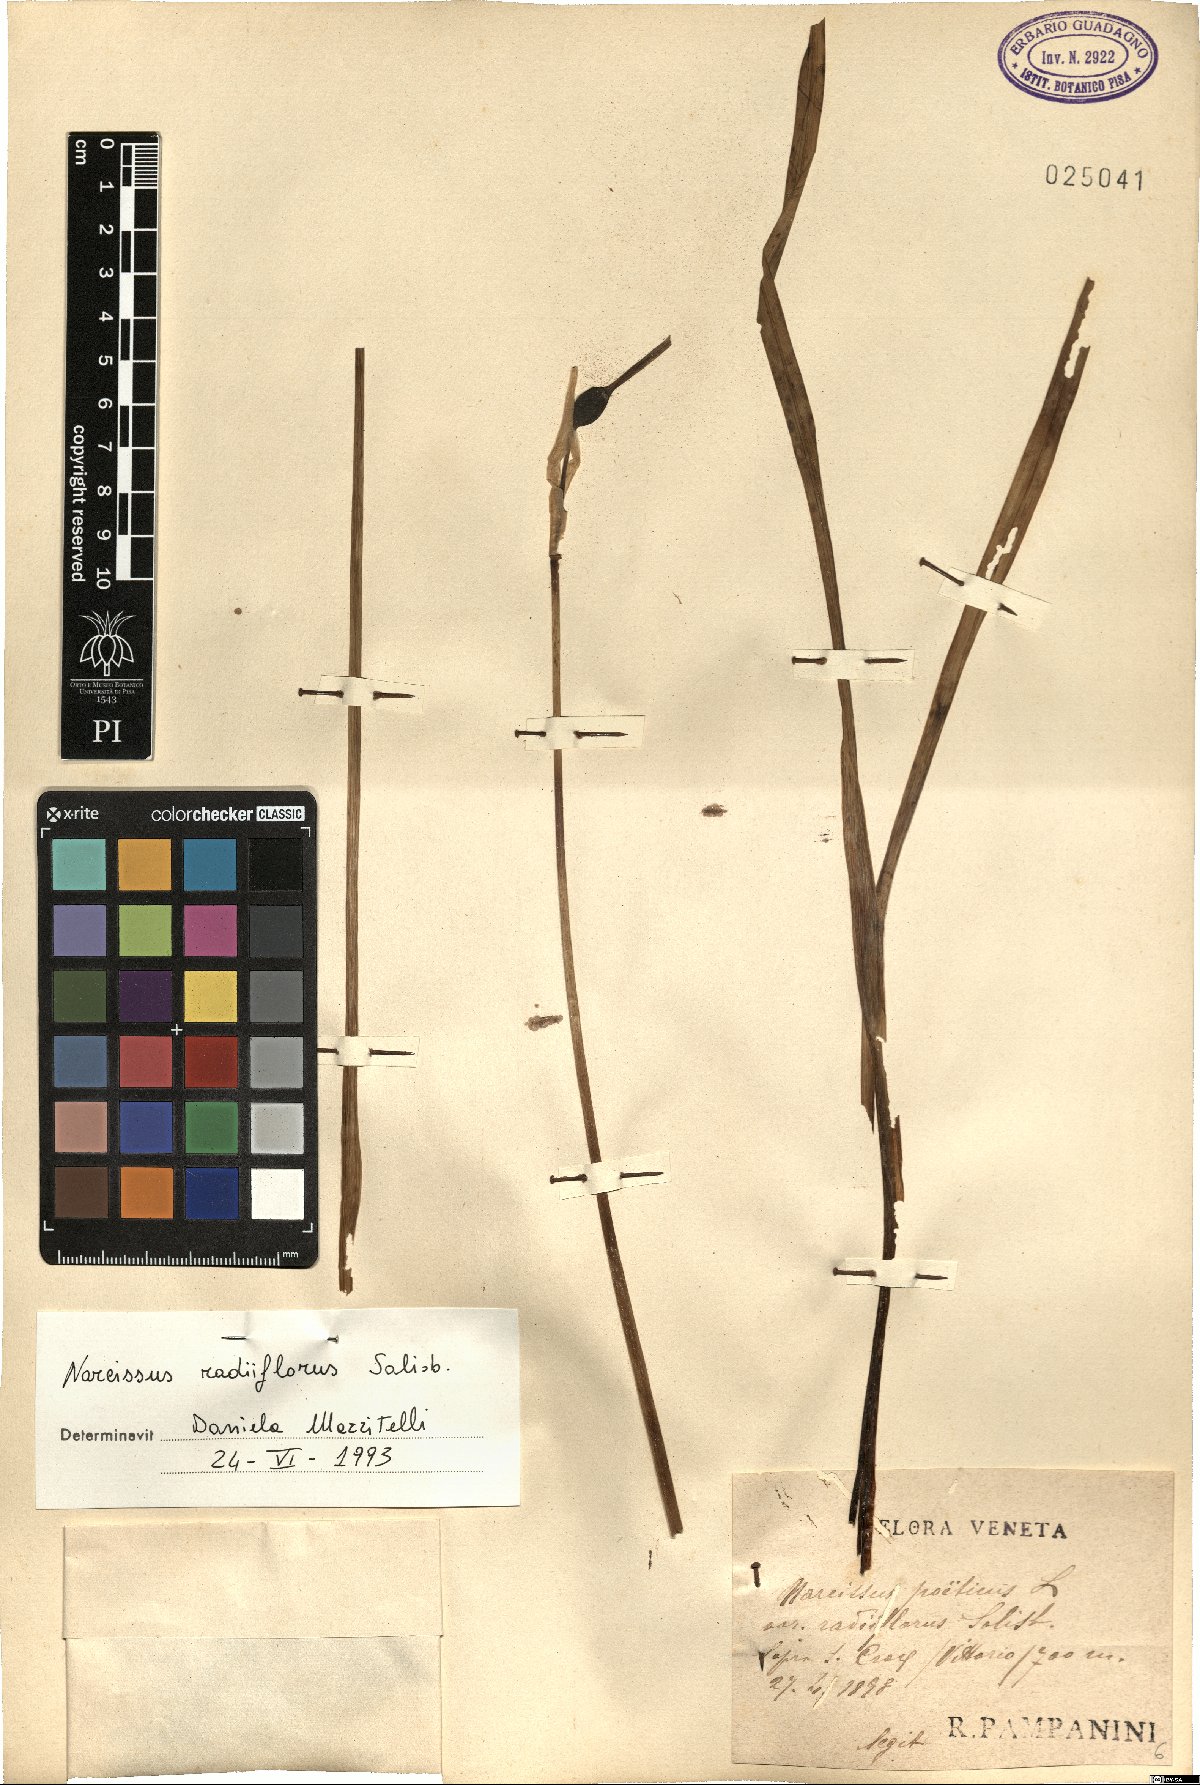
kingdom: Plantae
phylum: Tracheophyta
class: Liliopsida
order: Asparagales
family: Amaryllidaceae
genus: Narcissus
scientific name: Narcissus poeticus
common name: Pheasant's-eye daffodil
